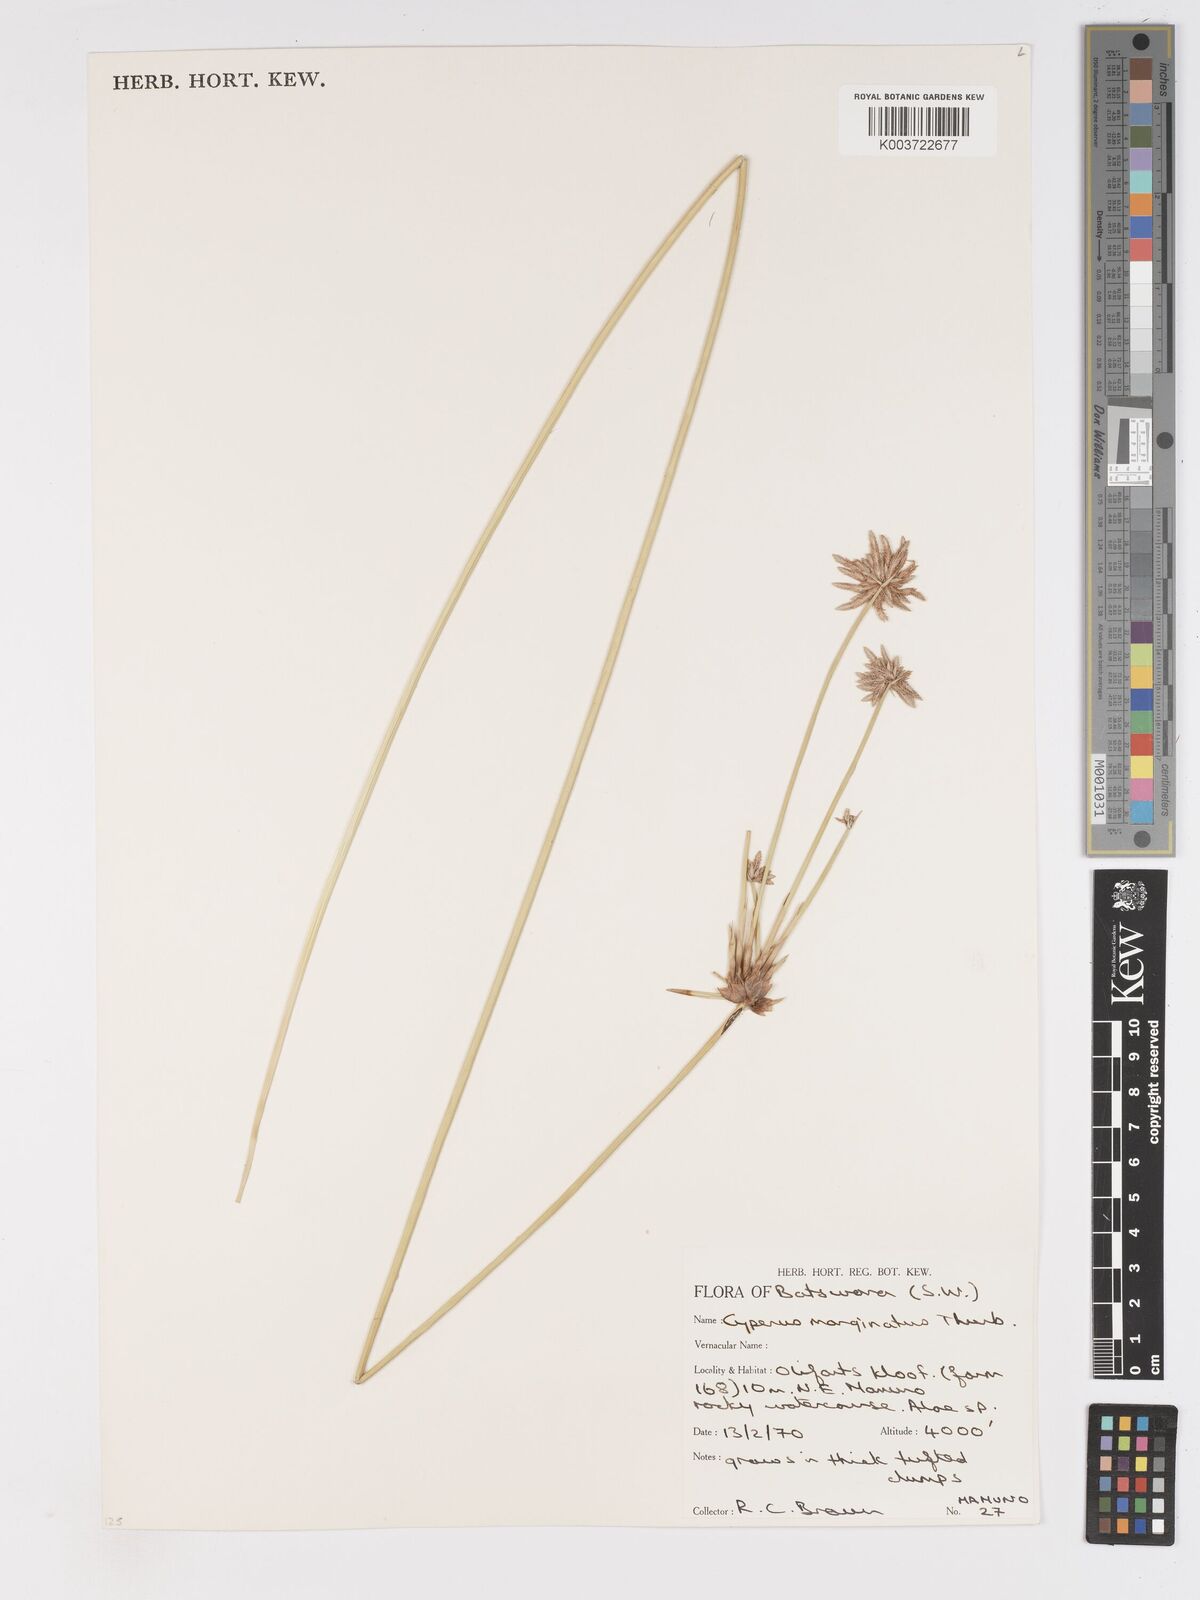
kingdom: Plantae
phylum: Tracheophyta
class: Liliopsida
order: Poales
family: Cyperaceae
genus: Cyperus
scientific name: Cyperus marginatus
